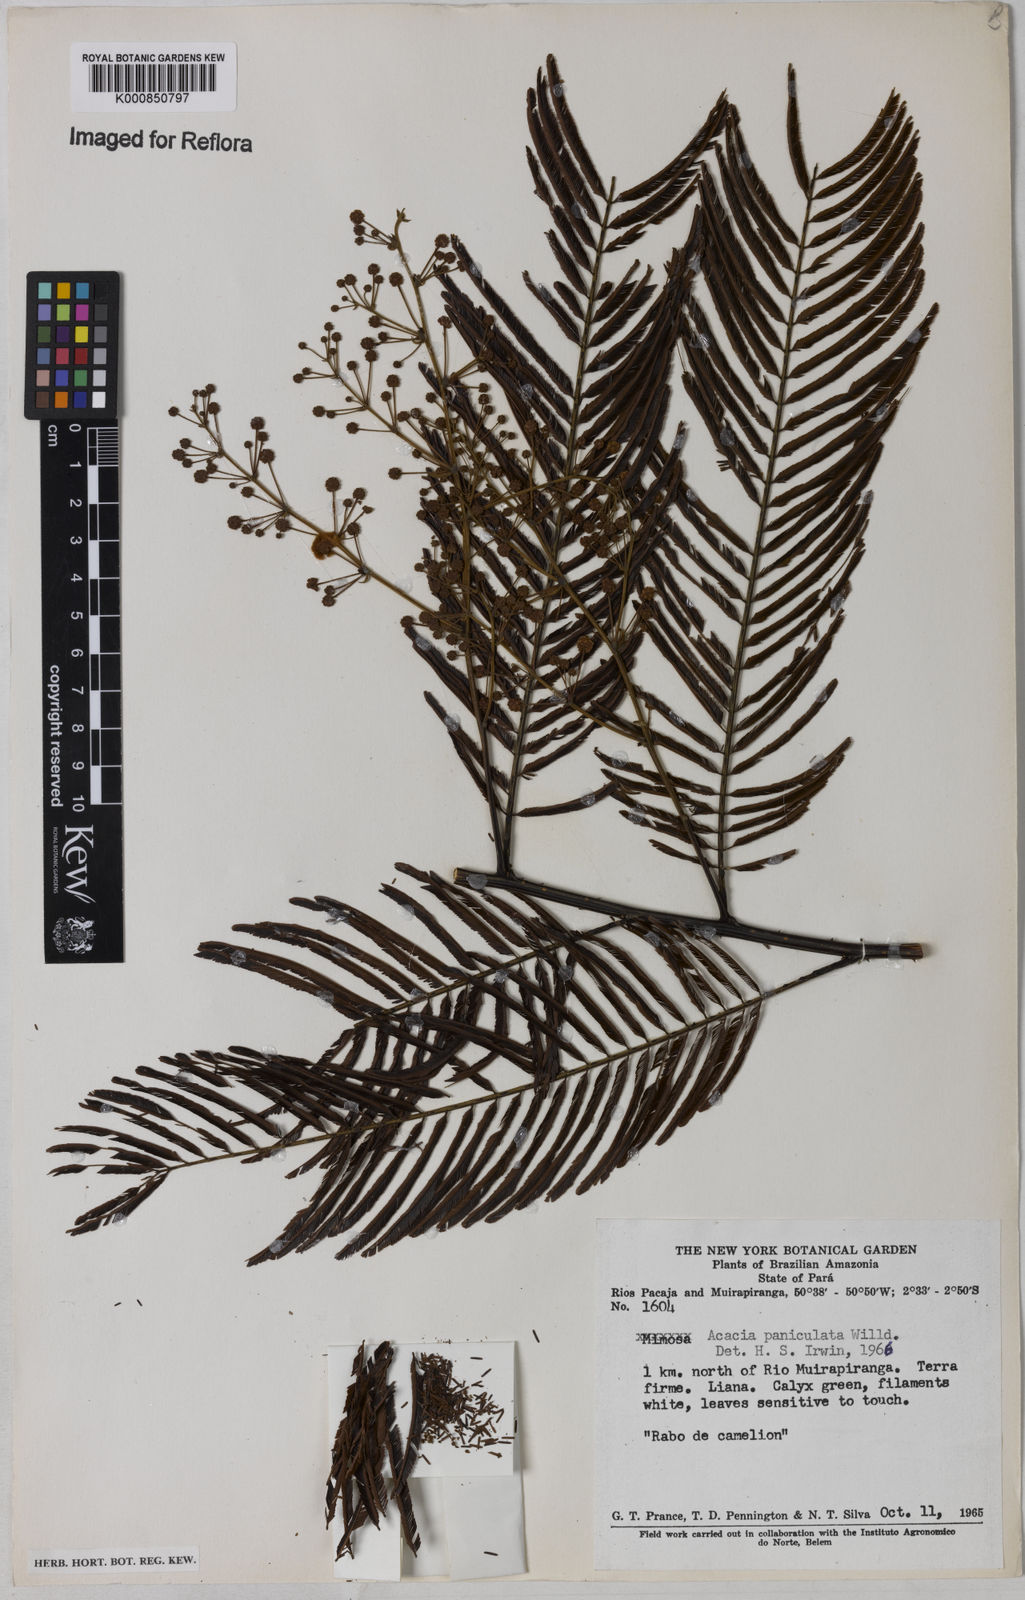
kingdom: Plantae
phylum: Tracheophyta
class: Magnoliopsida
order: Fabales
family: Fabaceae
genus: Senegalia
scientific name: Senegalia tenuifolia
